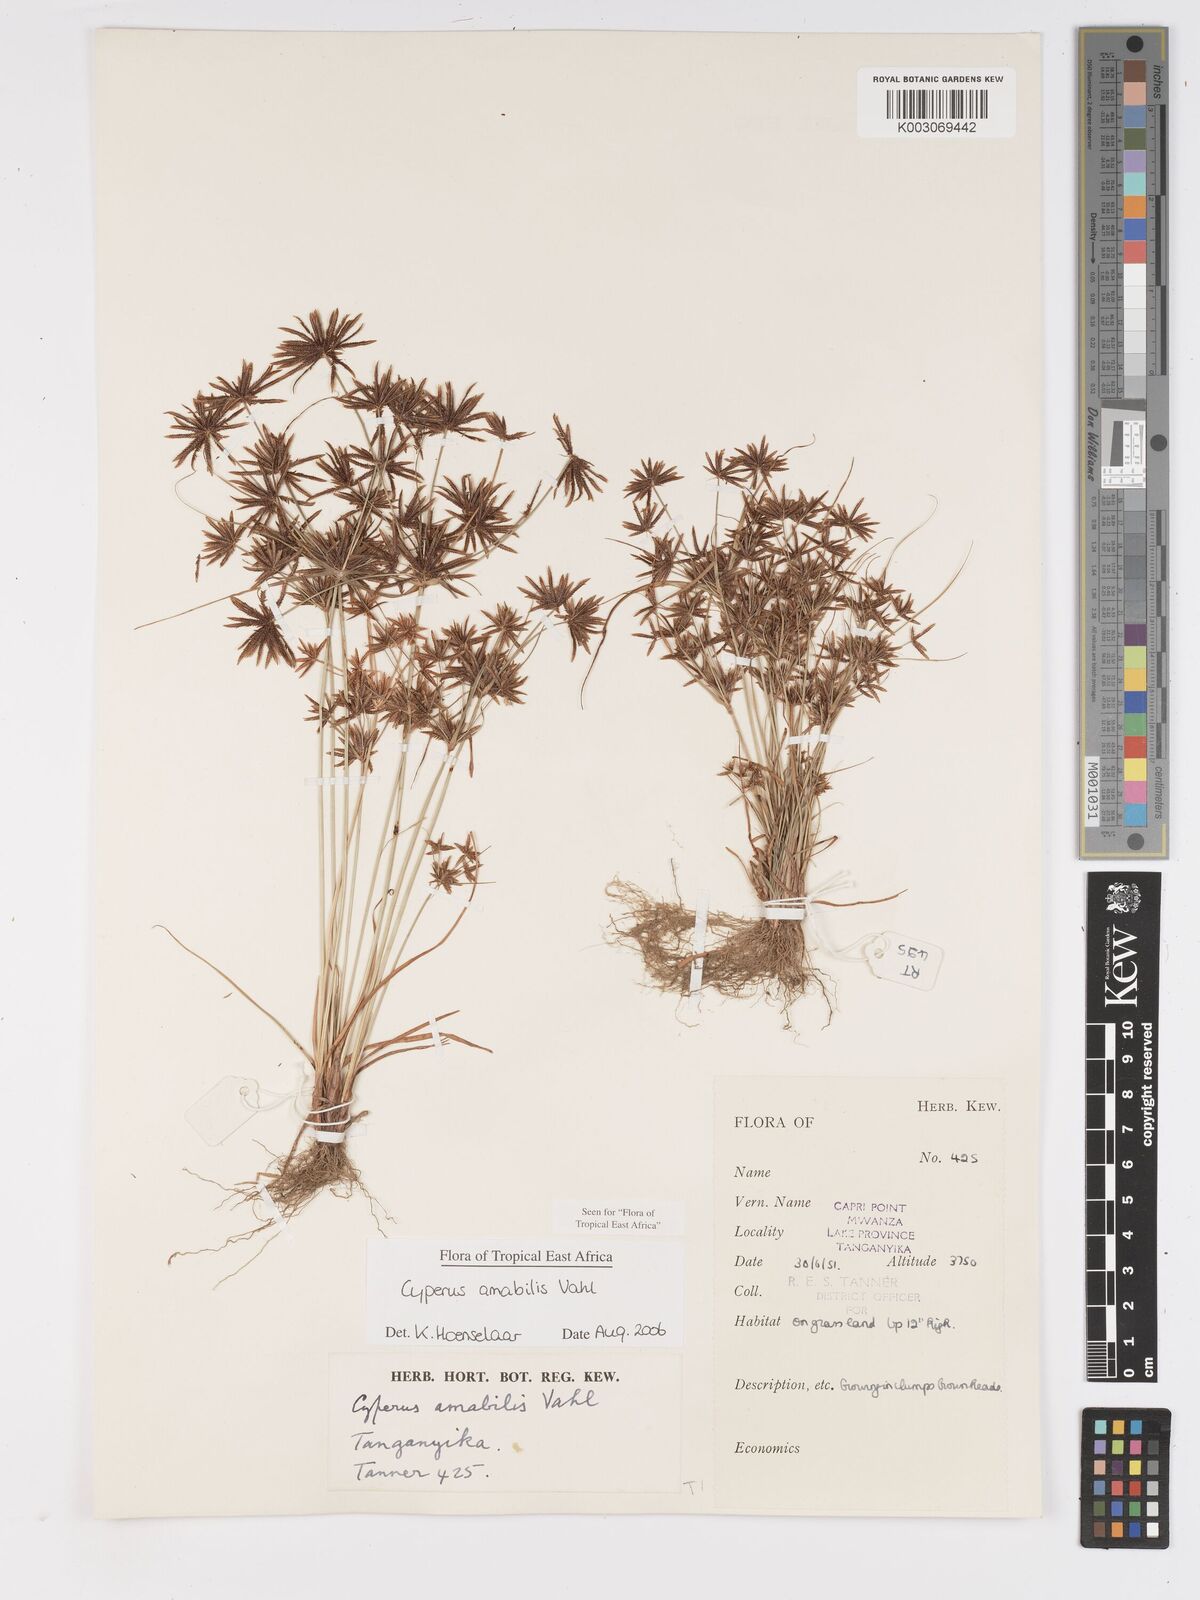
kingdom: Plantae
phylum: Tracheophyta
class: Liliopsida
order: Poales
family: Cyperaceae
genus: Cyperus
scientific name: Cyperus amabilis
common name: Foothill flat sedge
